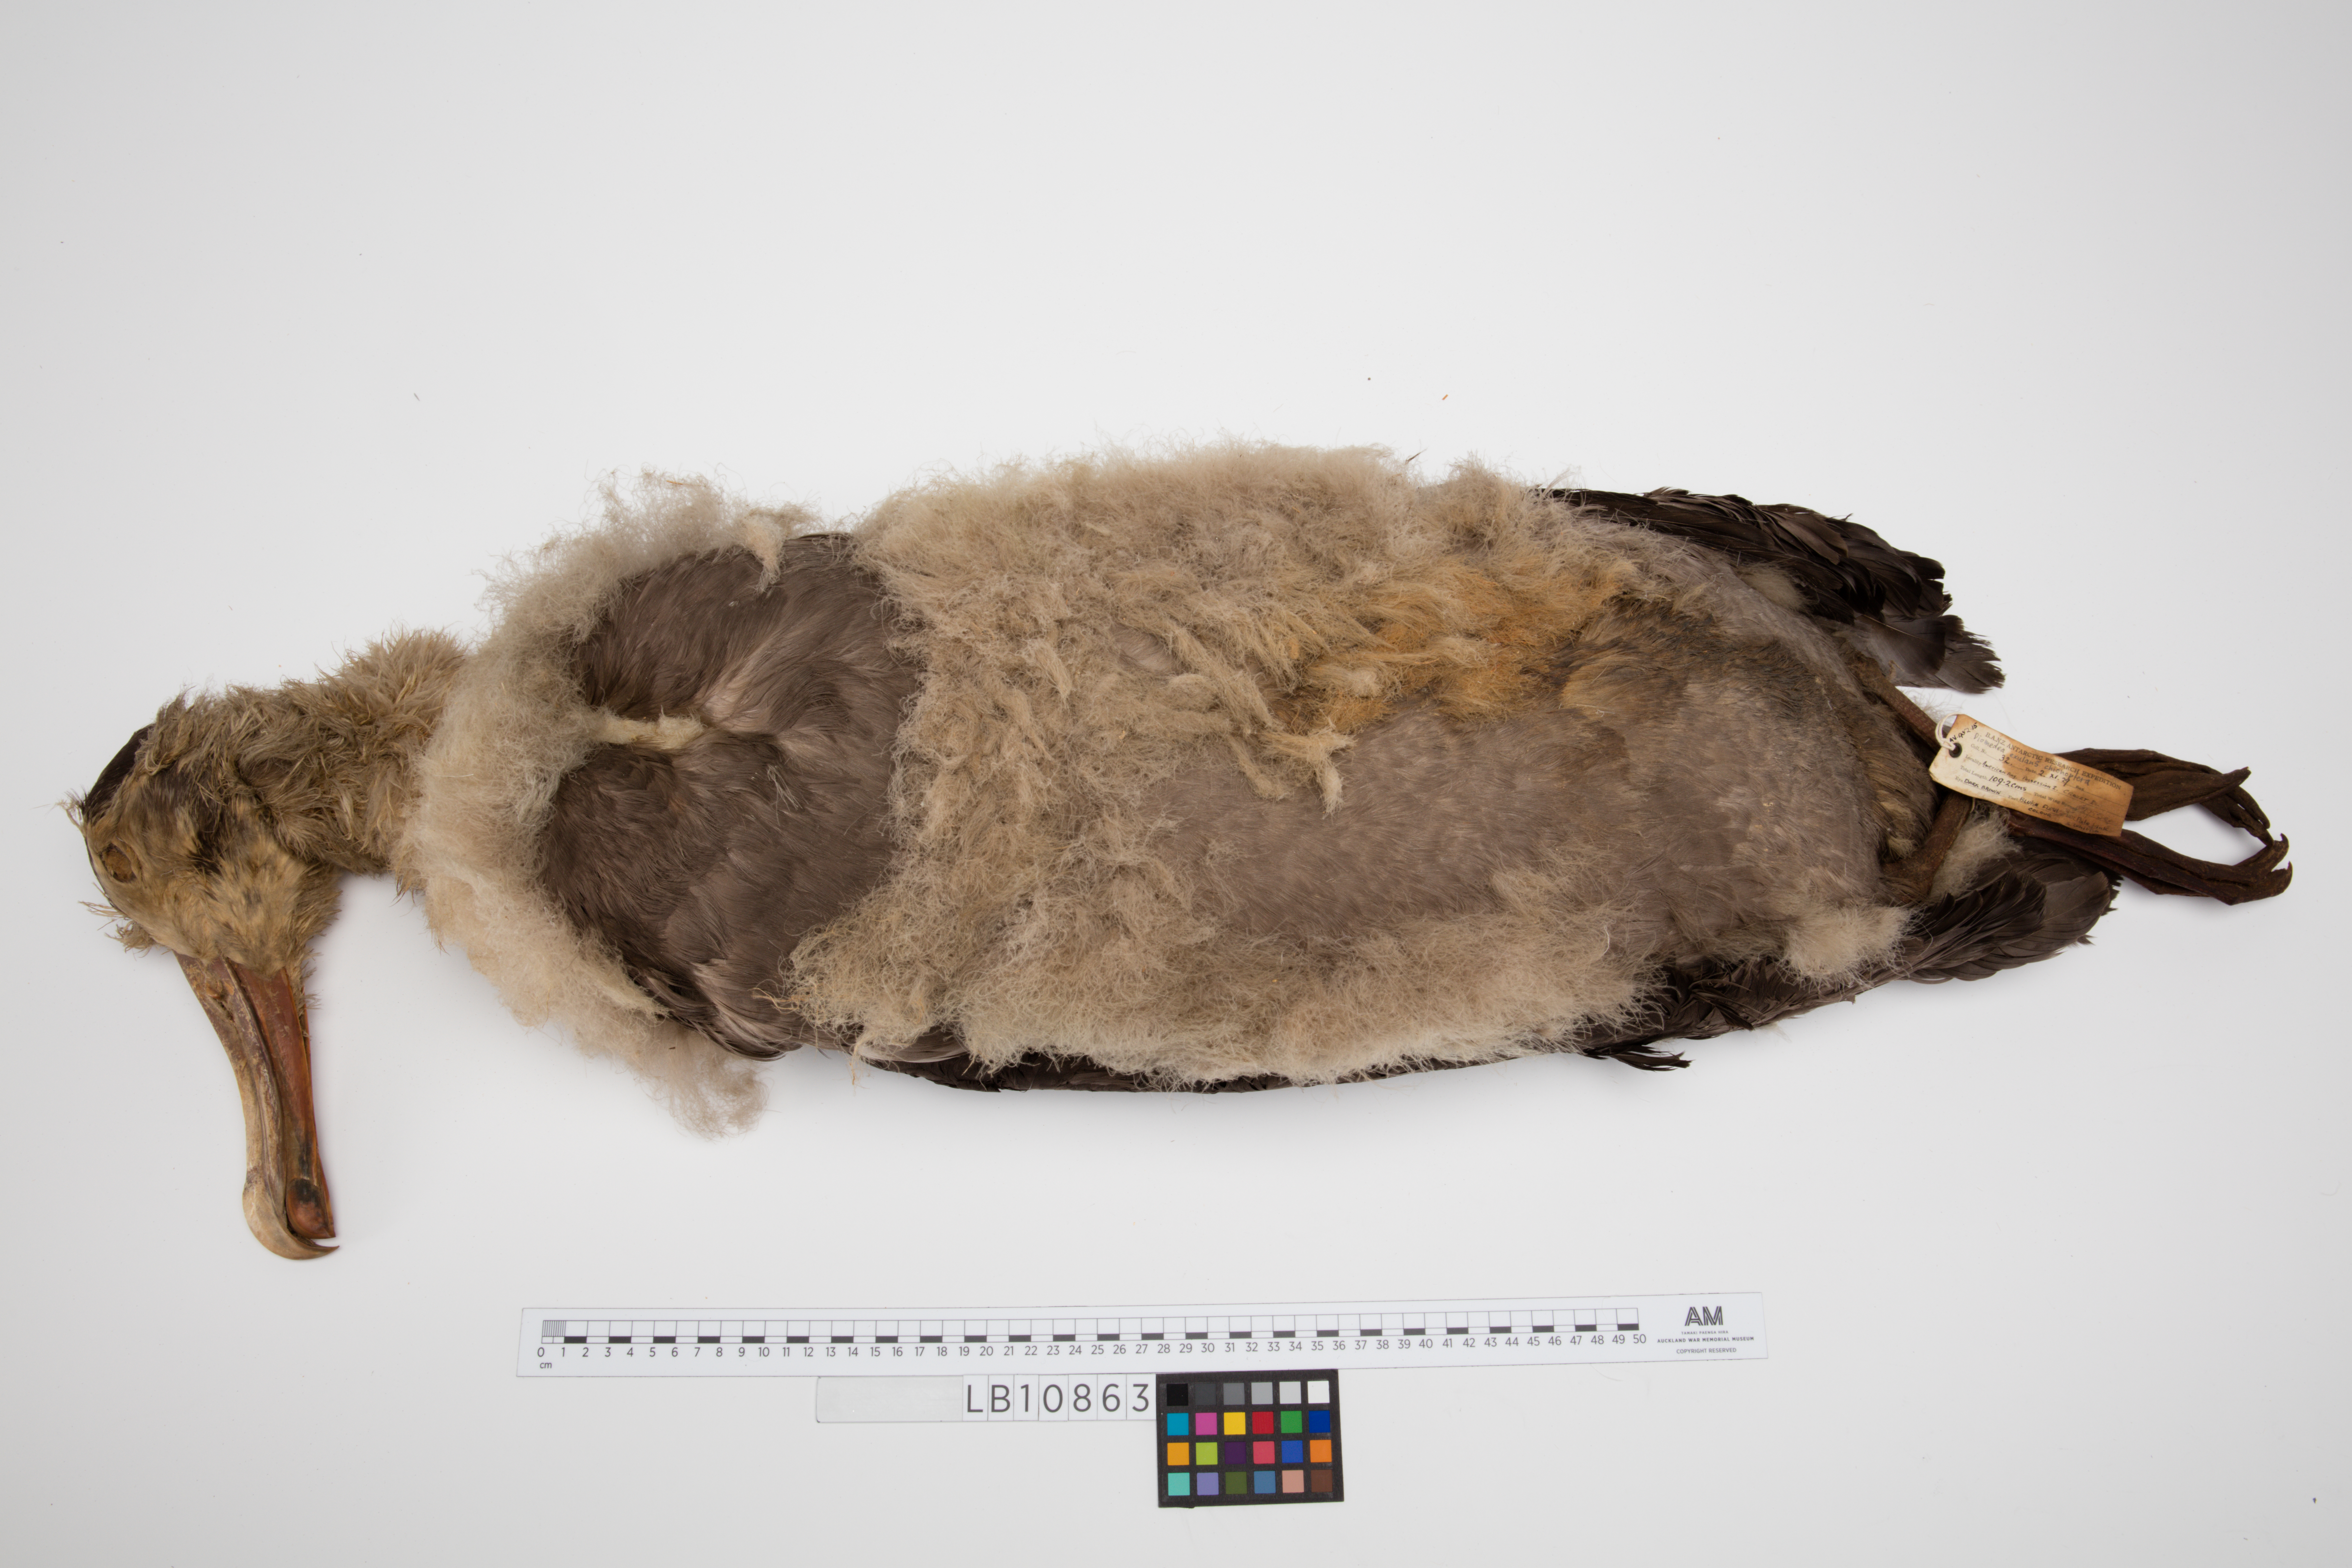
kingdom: Animalia
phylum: Chordata
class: Aves
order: Procellariiformes
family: Diomedeidae
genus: Diomedea
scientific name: Diomedea exulans
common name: Wandering albatross
